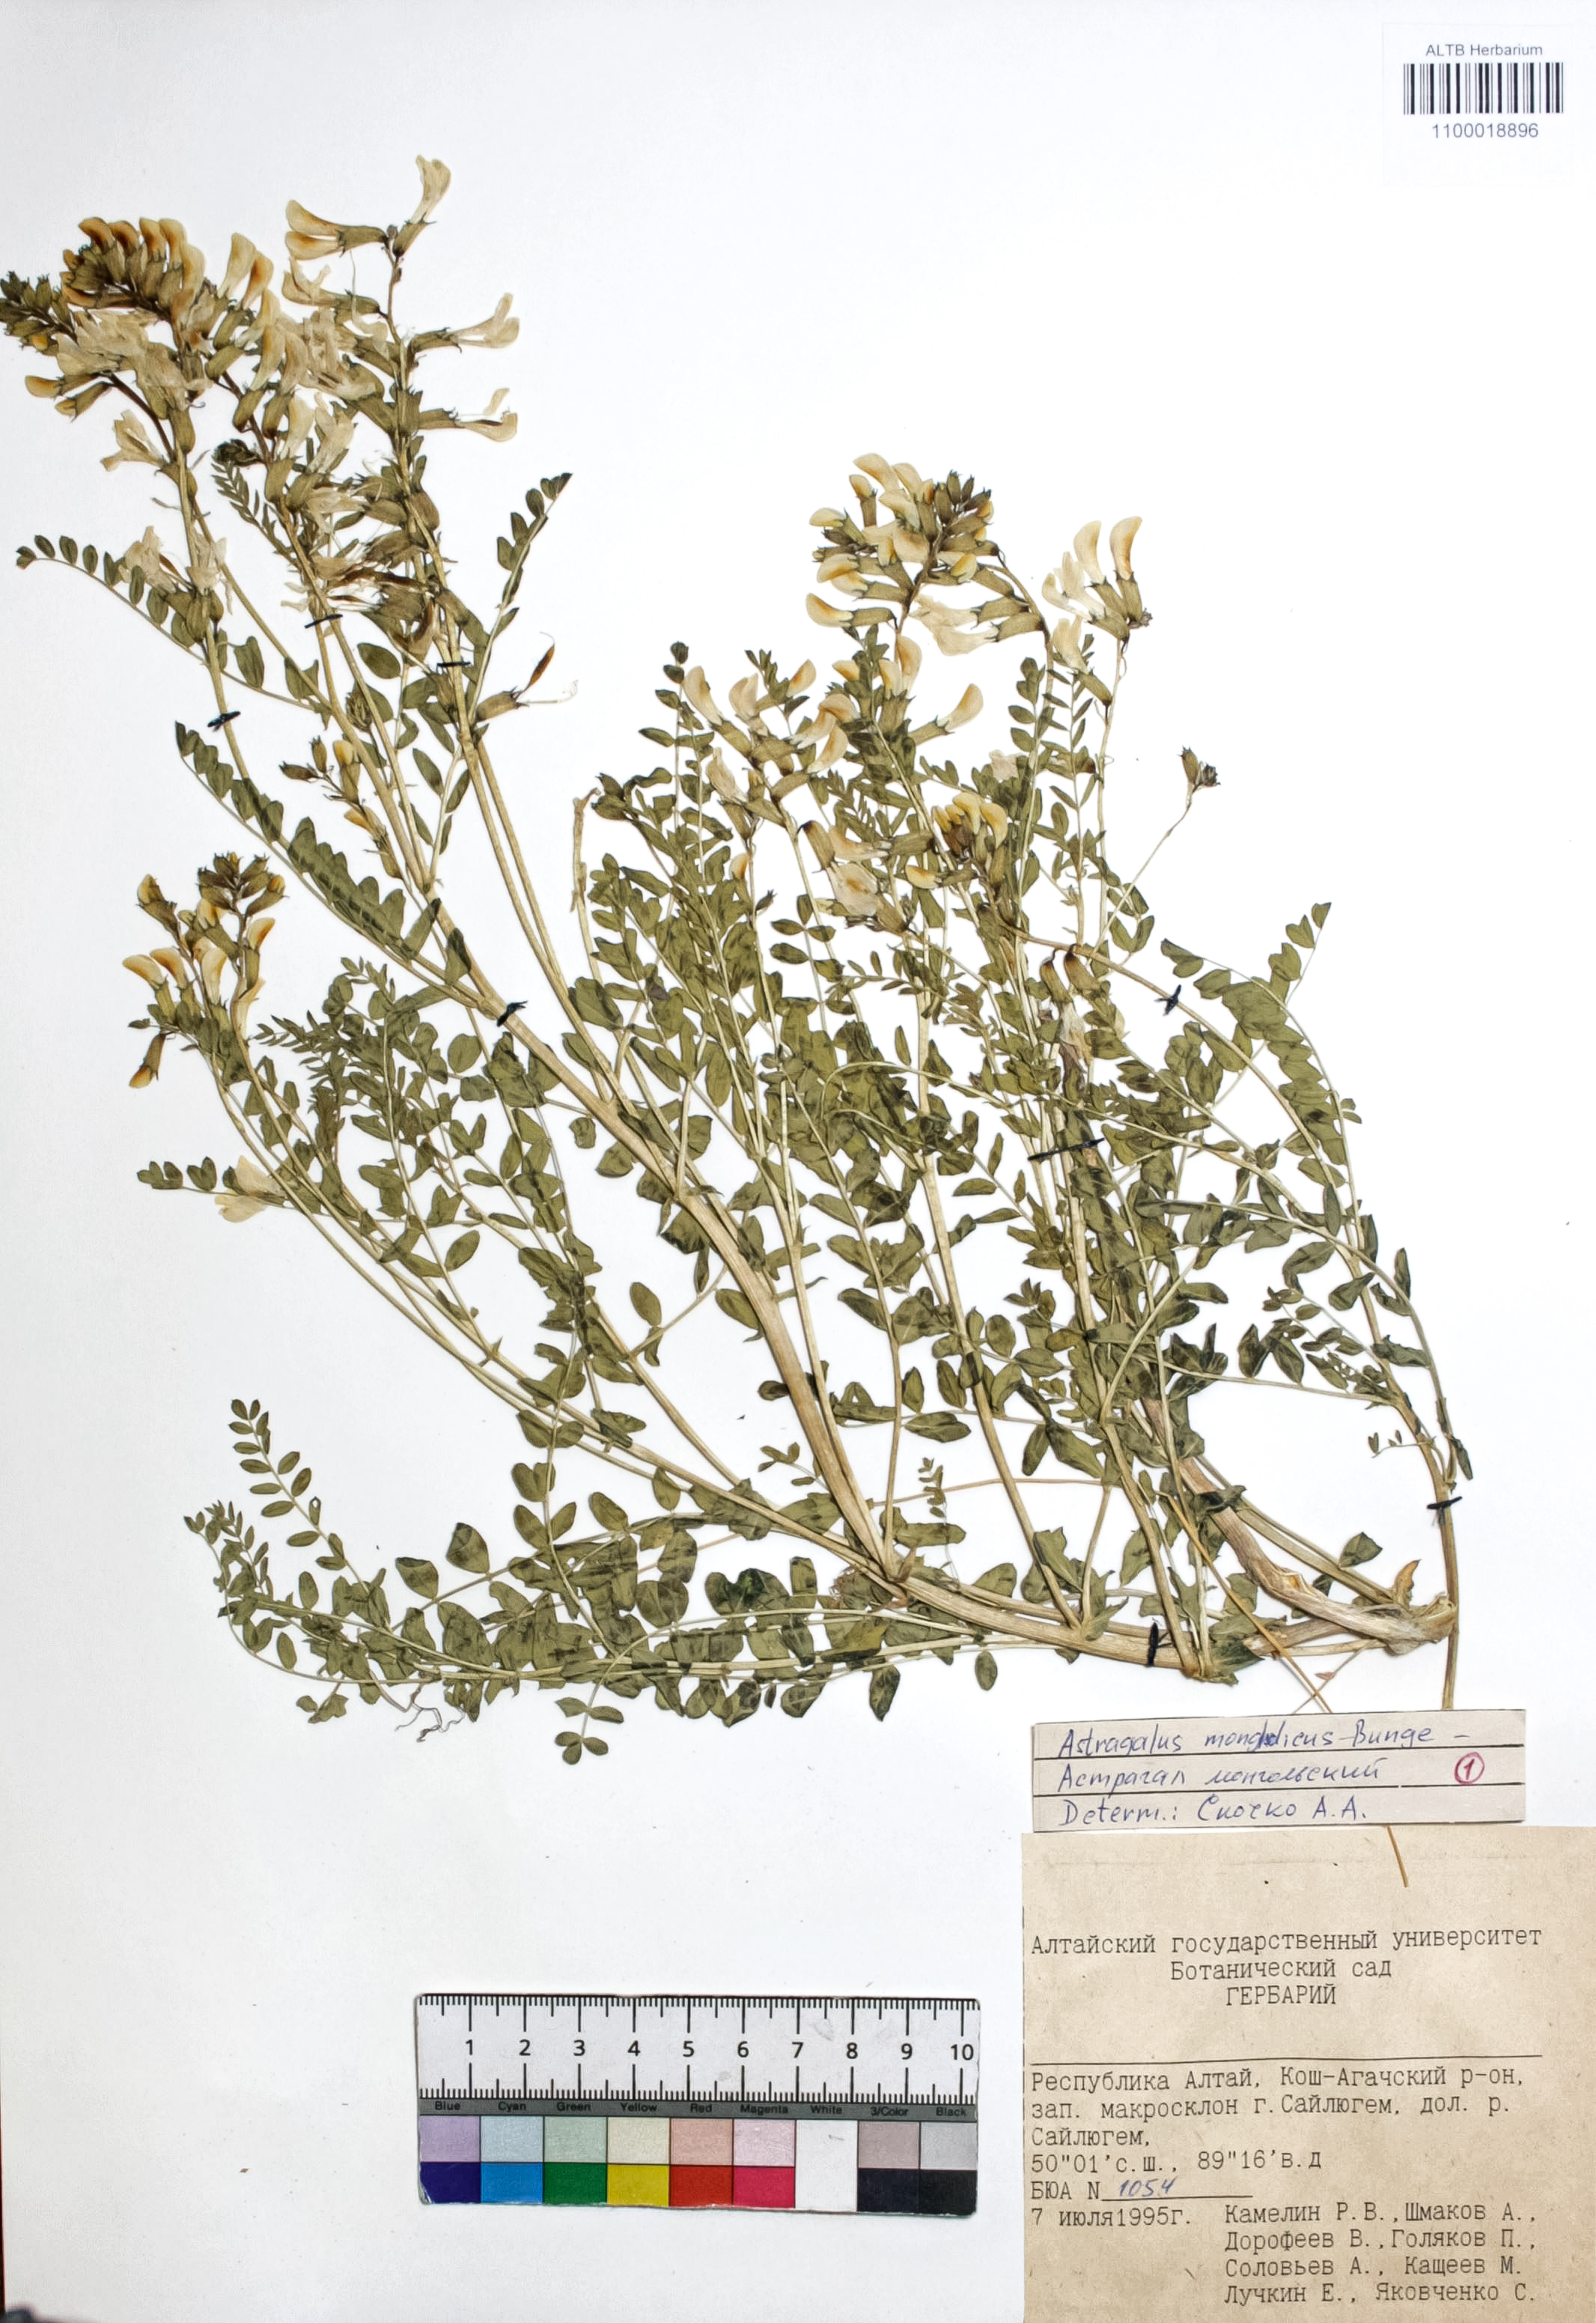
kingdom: Plantae
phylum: Tracheophyta
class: Magnoliopsida
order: Fabales
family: Fabaceae
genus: Astragalus
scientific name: Astragalus mongolicus
